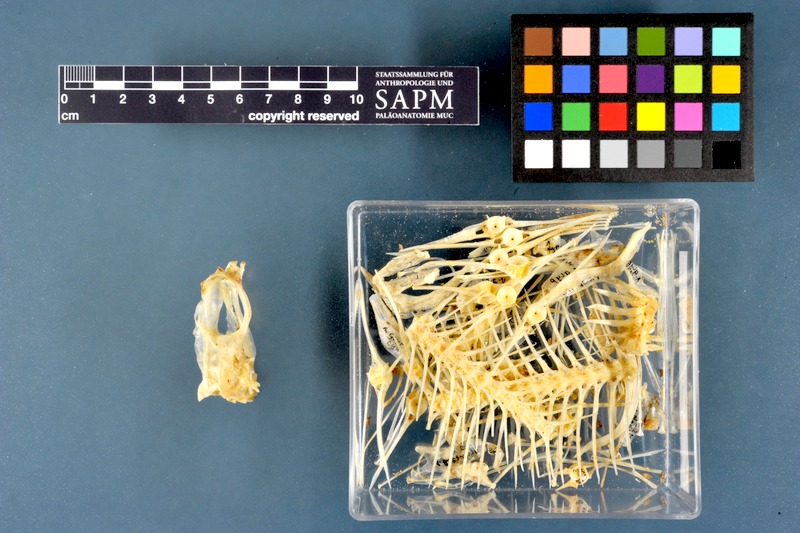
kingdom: Animalia
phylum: Chordata
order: Pleuronectiformes
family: Pleuronectidae
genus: Glyptocephalus
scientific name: Glyptocephalus cynoglossus
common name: Witch
